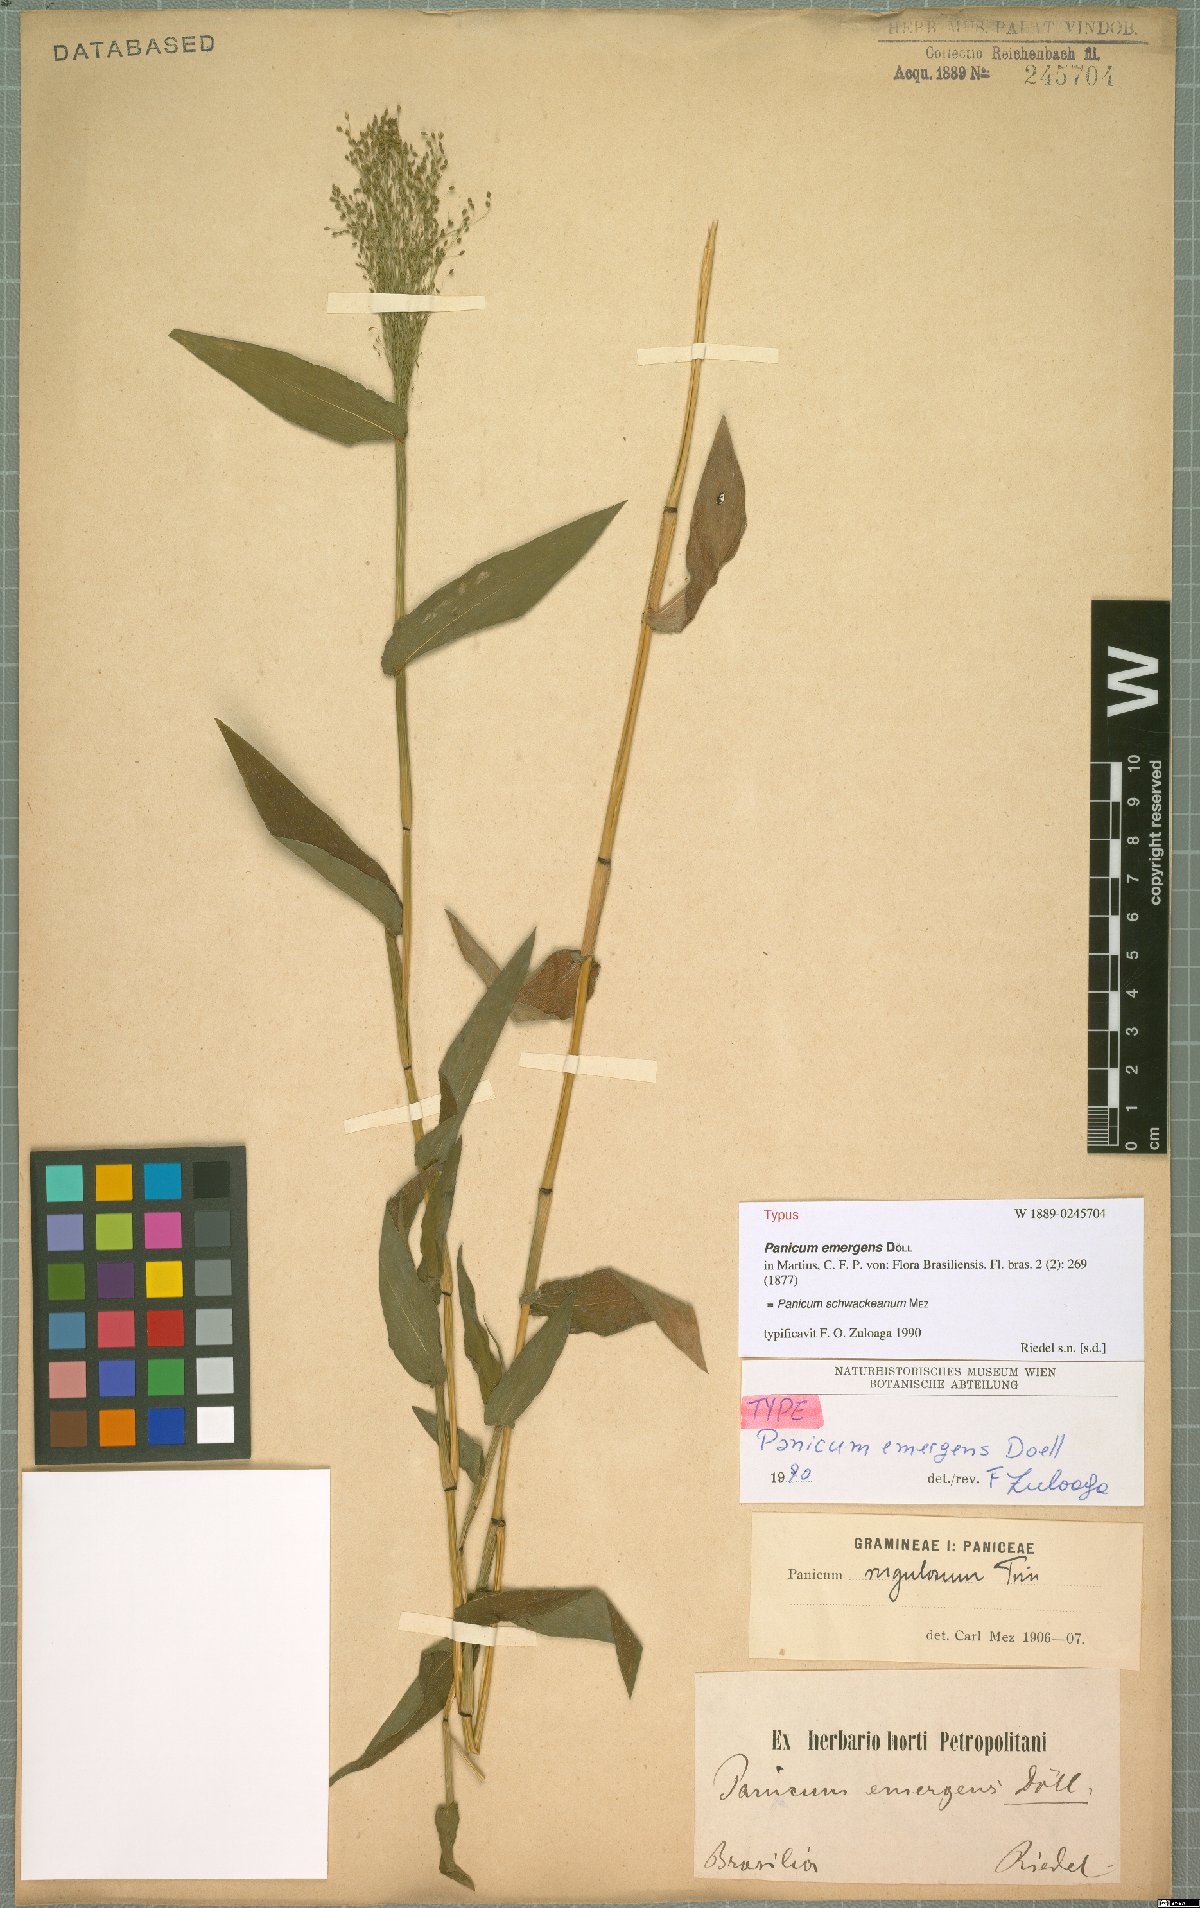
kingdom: Plantae
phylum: Tracheophyta
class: Liliopsida
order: Poales
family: Poaceae
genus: Trichanthecium
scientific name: Trichanthecium schwackeanum
